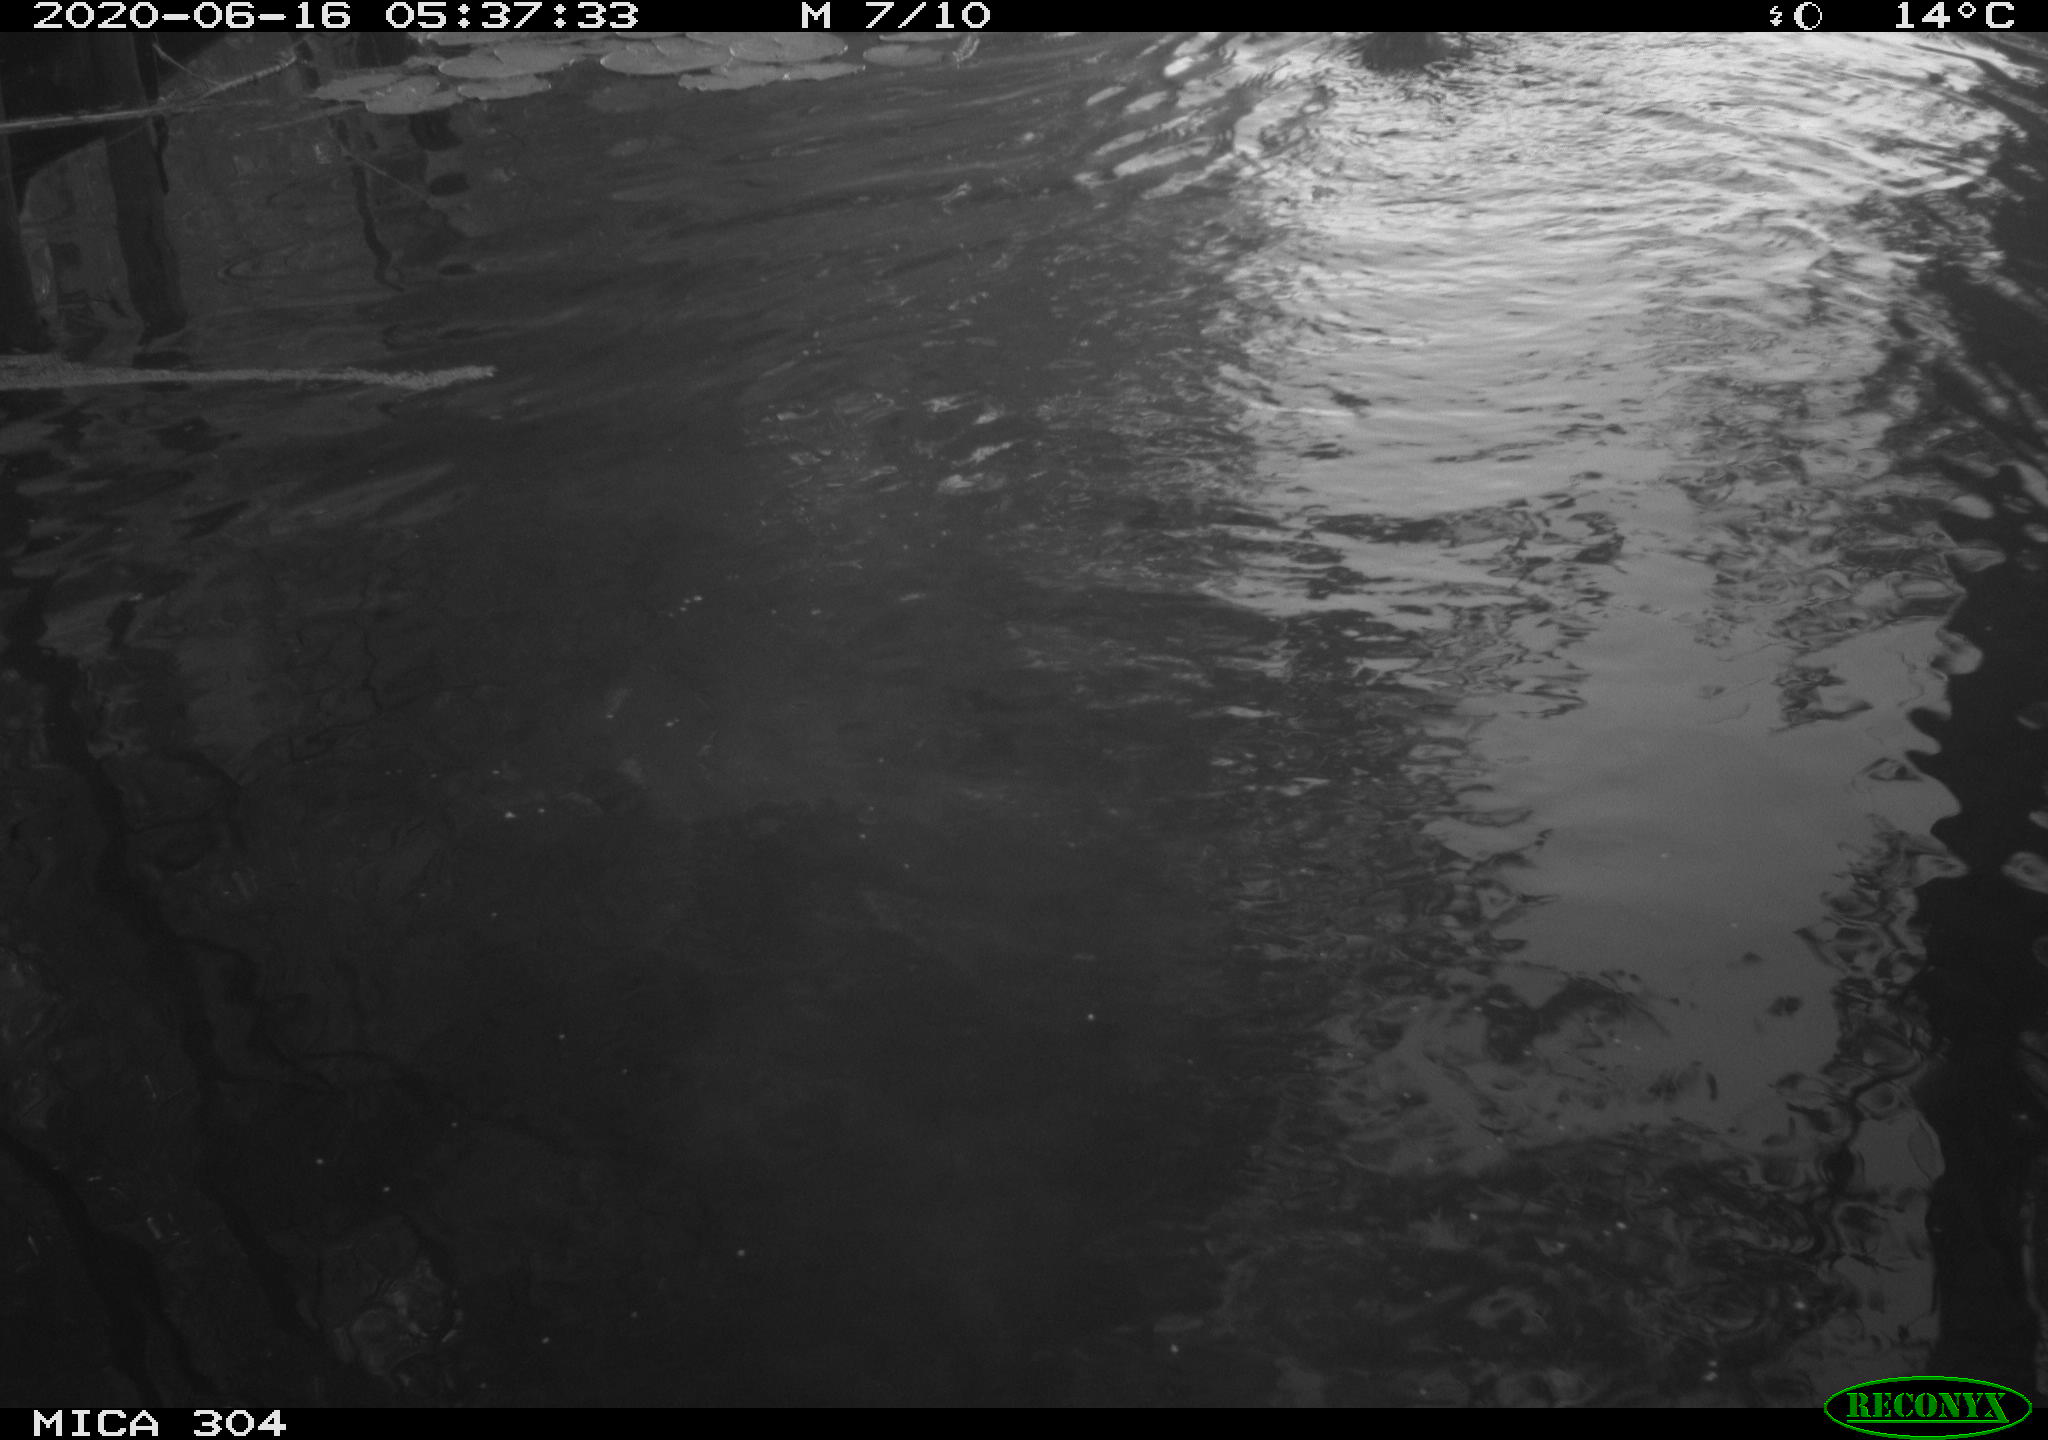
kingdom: Animalia
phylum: Chordata
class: Aves
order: Anseriformes
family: Anatidae
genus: Anas
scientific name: Anas platyrhynchos
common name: Mallard
